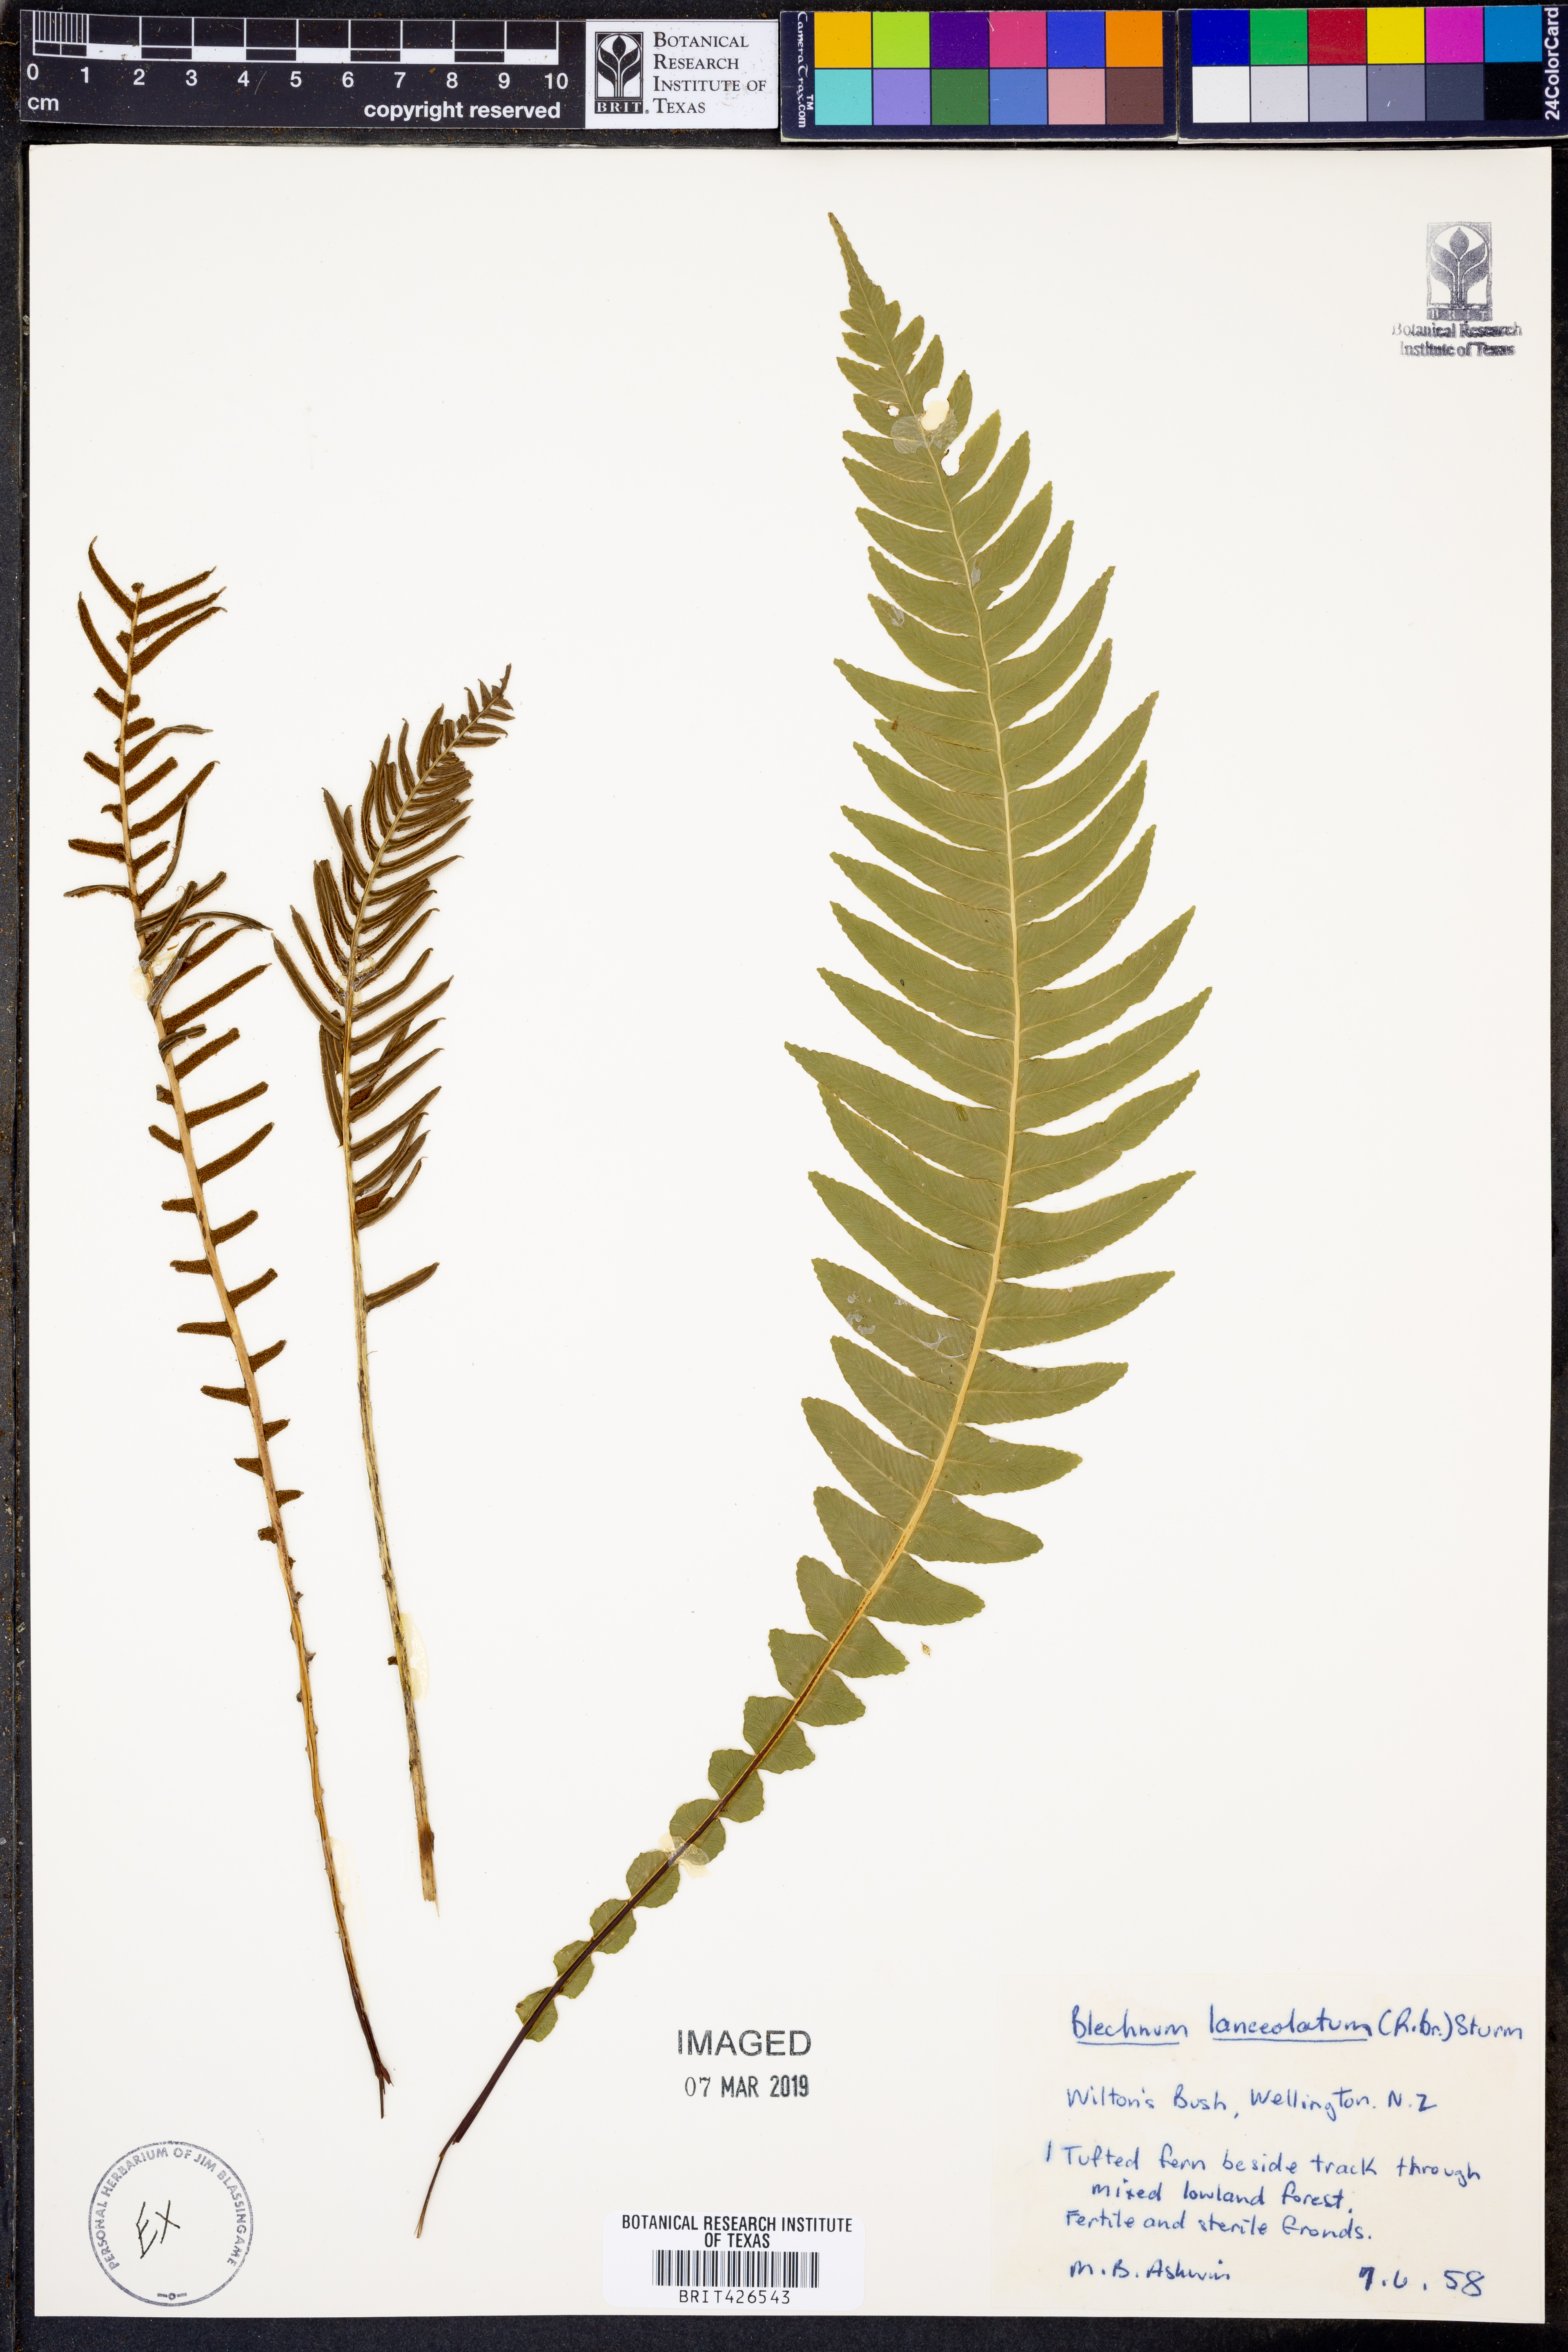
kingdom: Plantae
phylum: Tracheophyta
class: Polypodiopsida
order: Polypodiales
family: Blechnaceae
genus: Blechnum
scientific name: Blechnum lanceola
